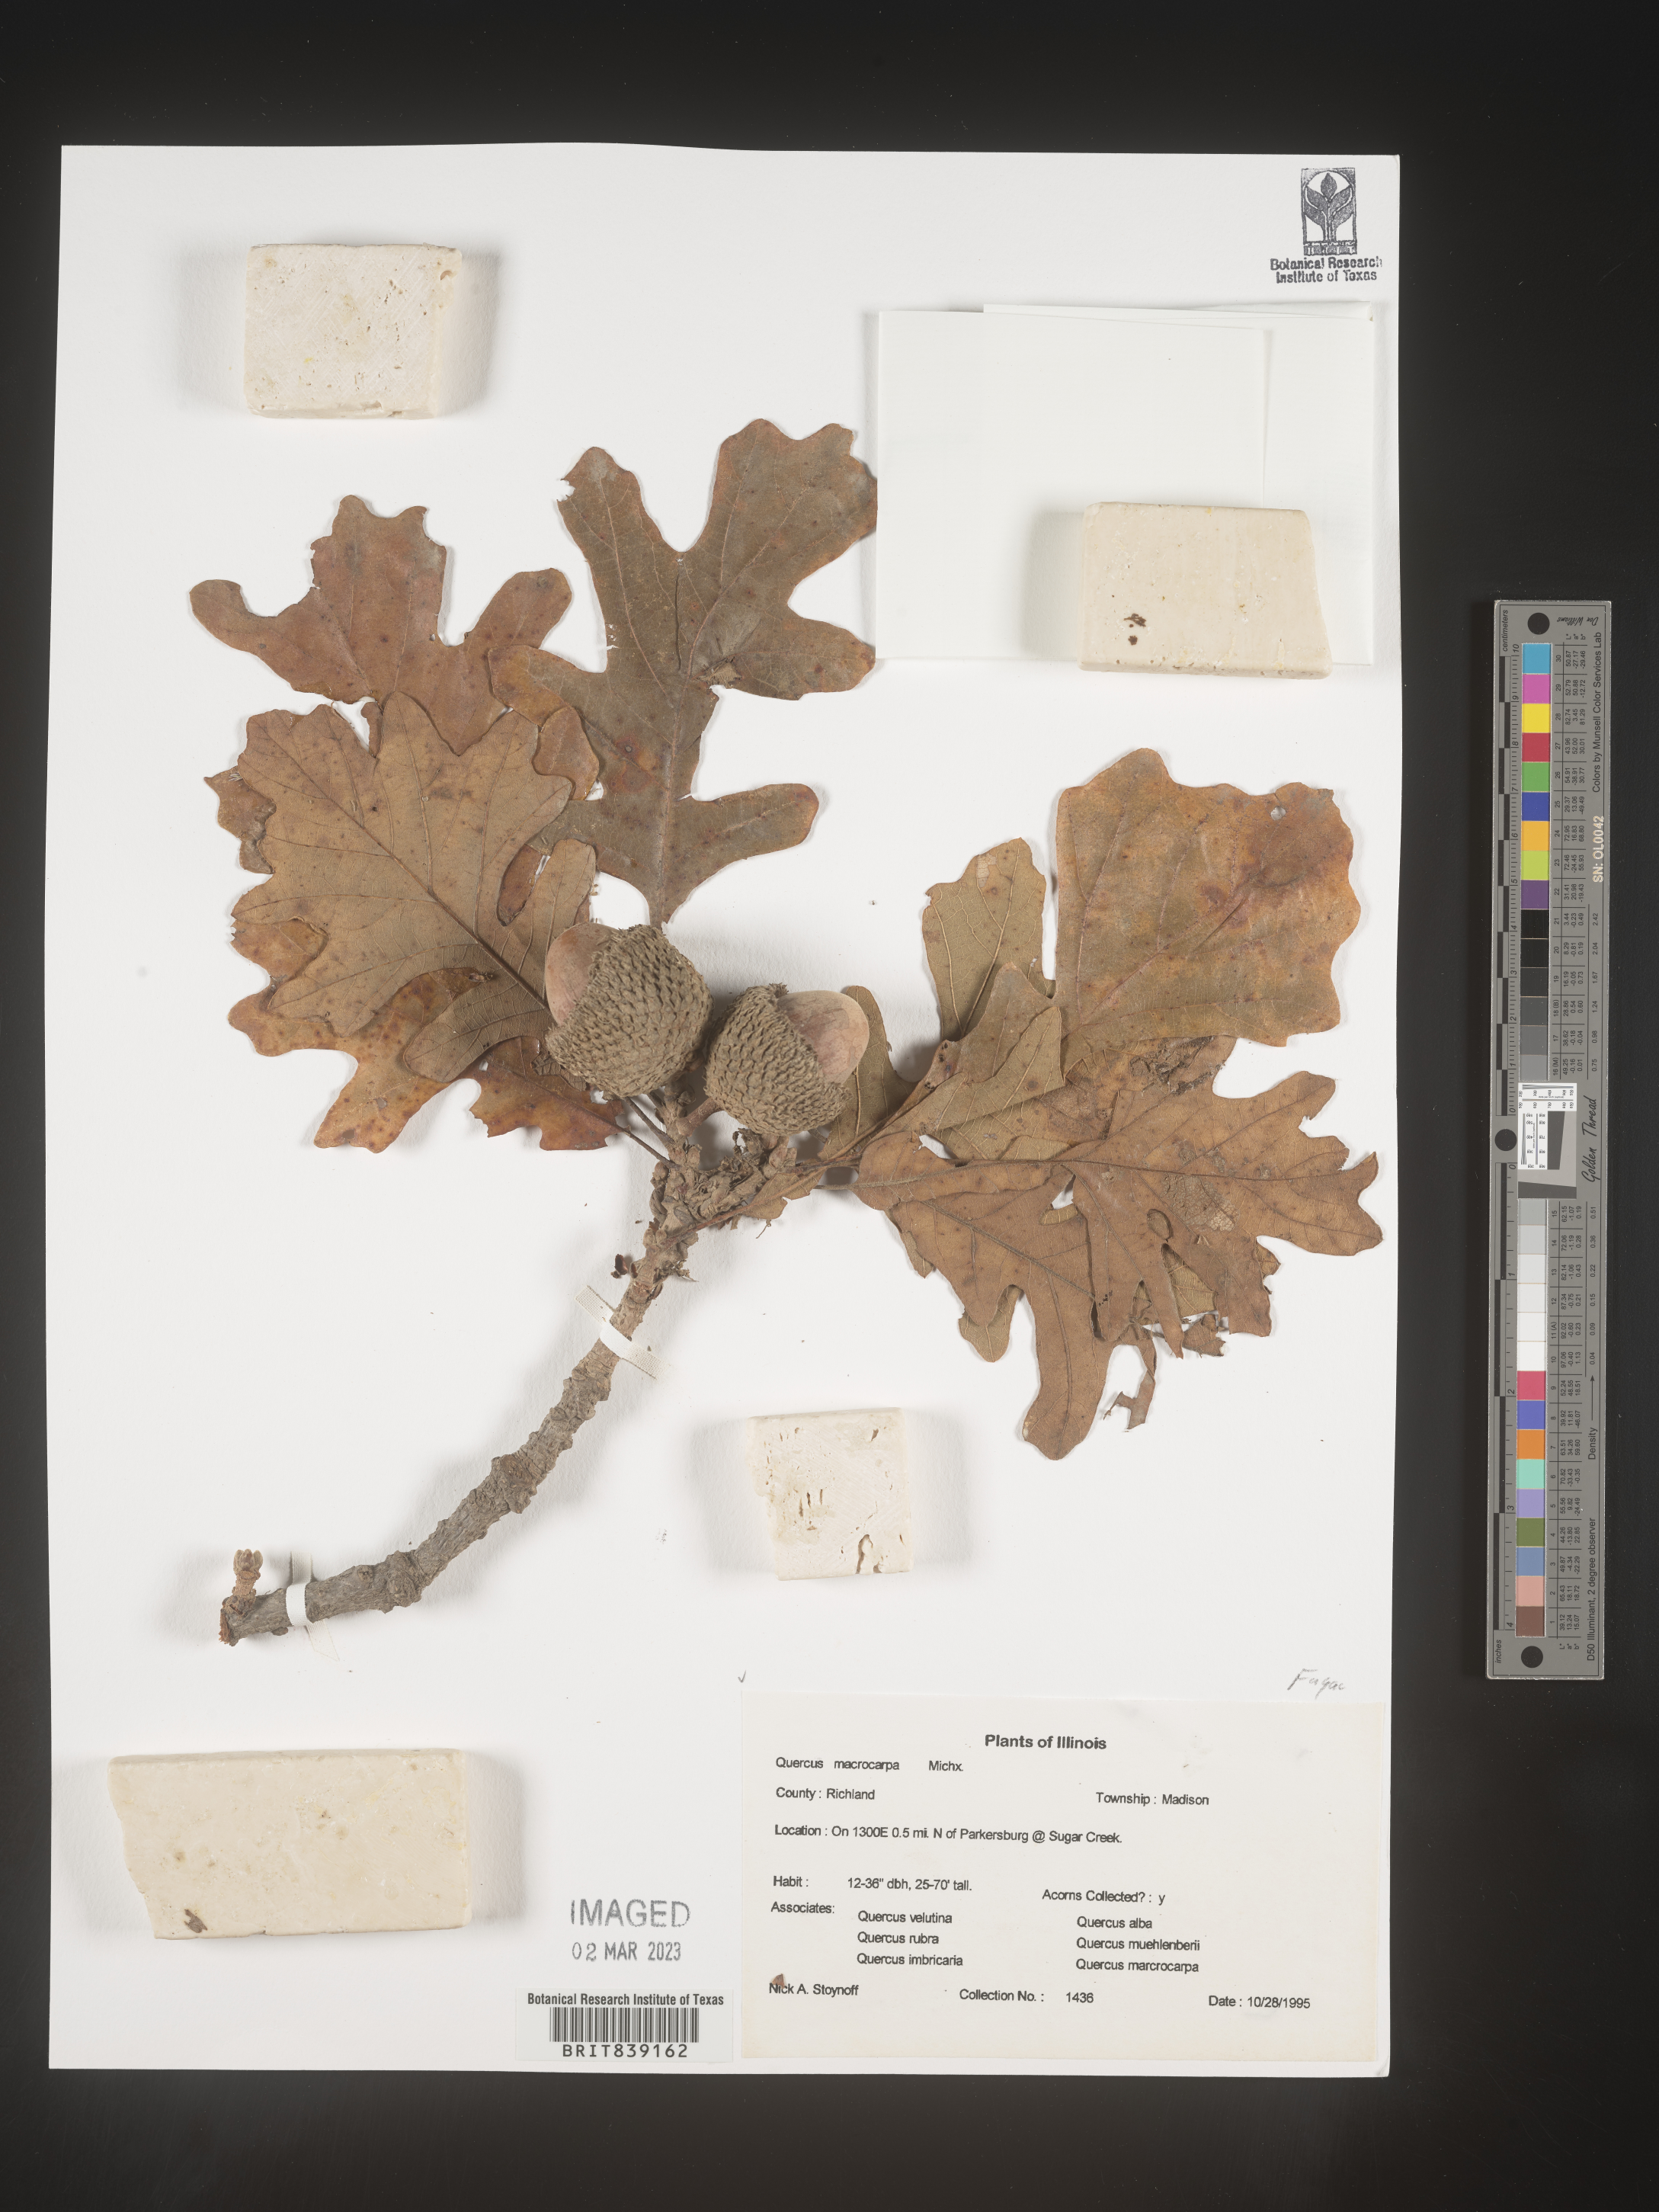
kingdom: Plantae
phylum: Tracheophyta
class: Magnoliopsida
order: Fagales
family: Fagaceae
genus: Quercus
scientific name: Quercus macrocarpa
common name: Bur oak
